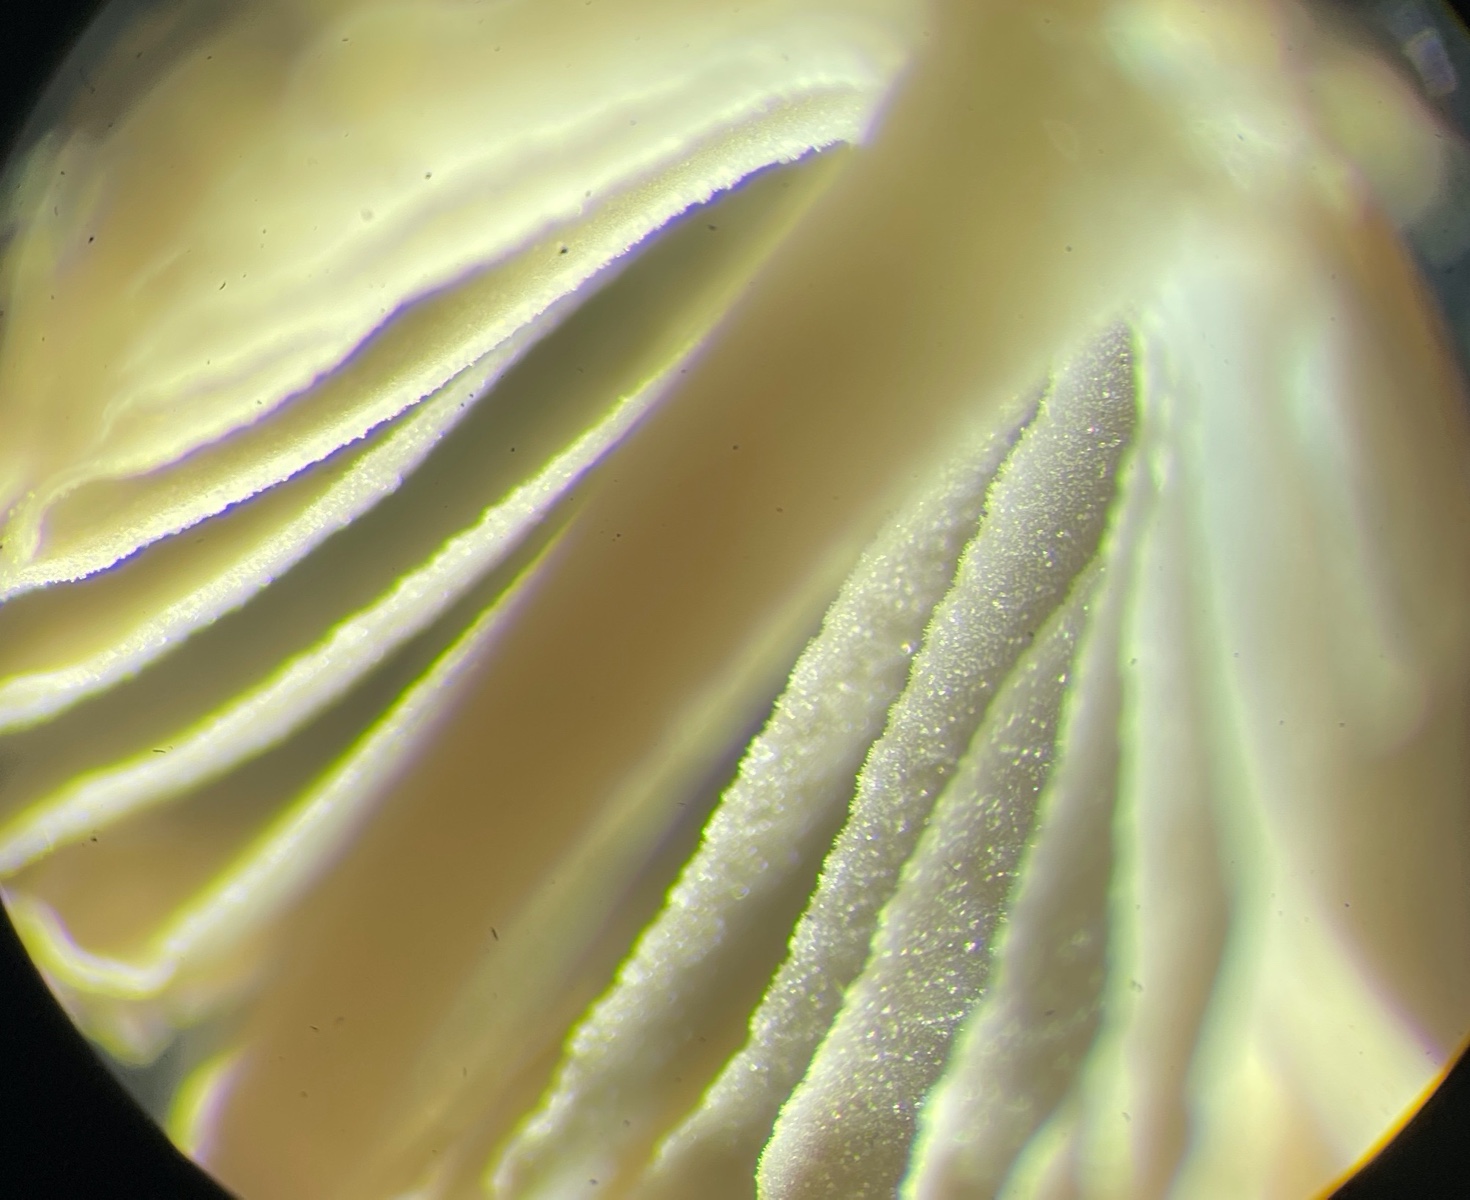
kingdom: Fungi
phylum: Basidiomycota
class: Agaricomycetes
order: Agaricales
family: Mycenaceae
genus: Mycena
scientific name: Mycena
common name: huesvamp
